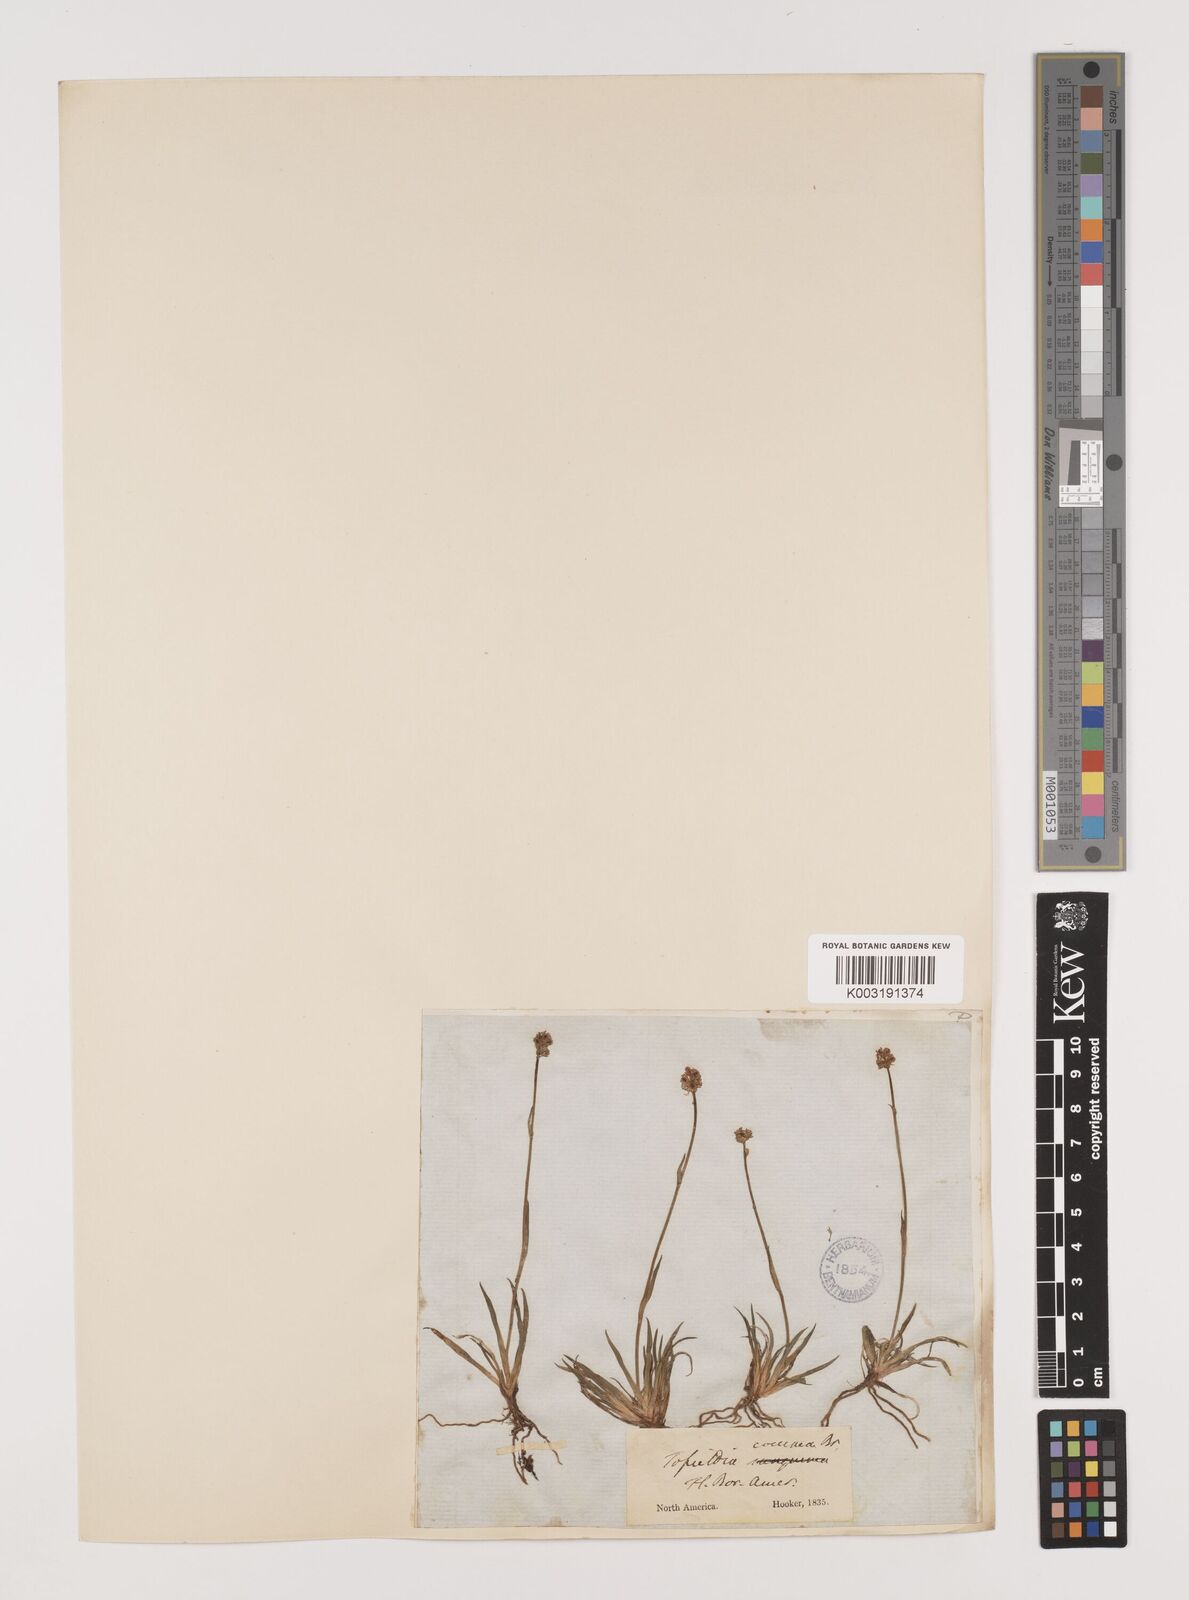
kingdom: Plantae
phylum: Tracheophyta
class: Liliopsida
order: Alismatales
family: Tofieldiaceae
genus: Tofieldia
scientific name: Tofieldia coccinea
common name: Northern false asphodel
